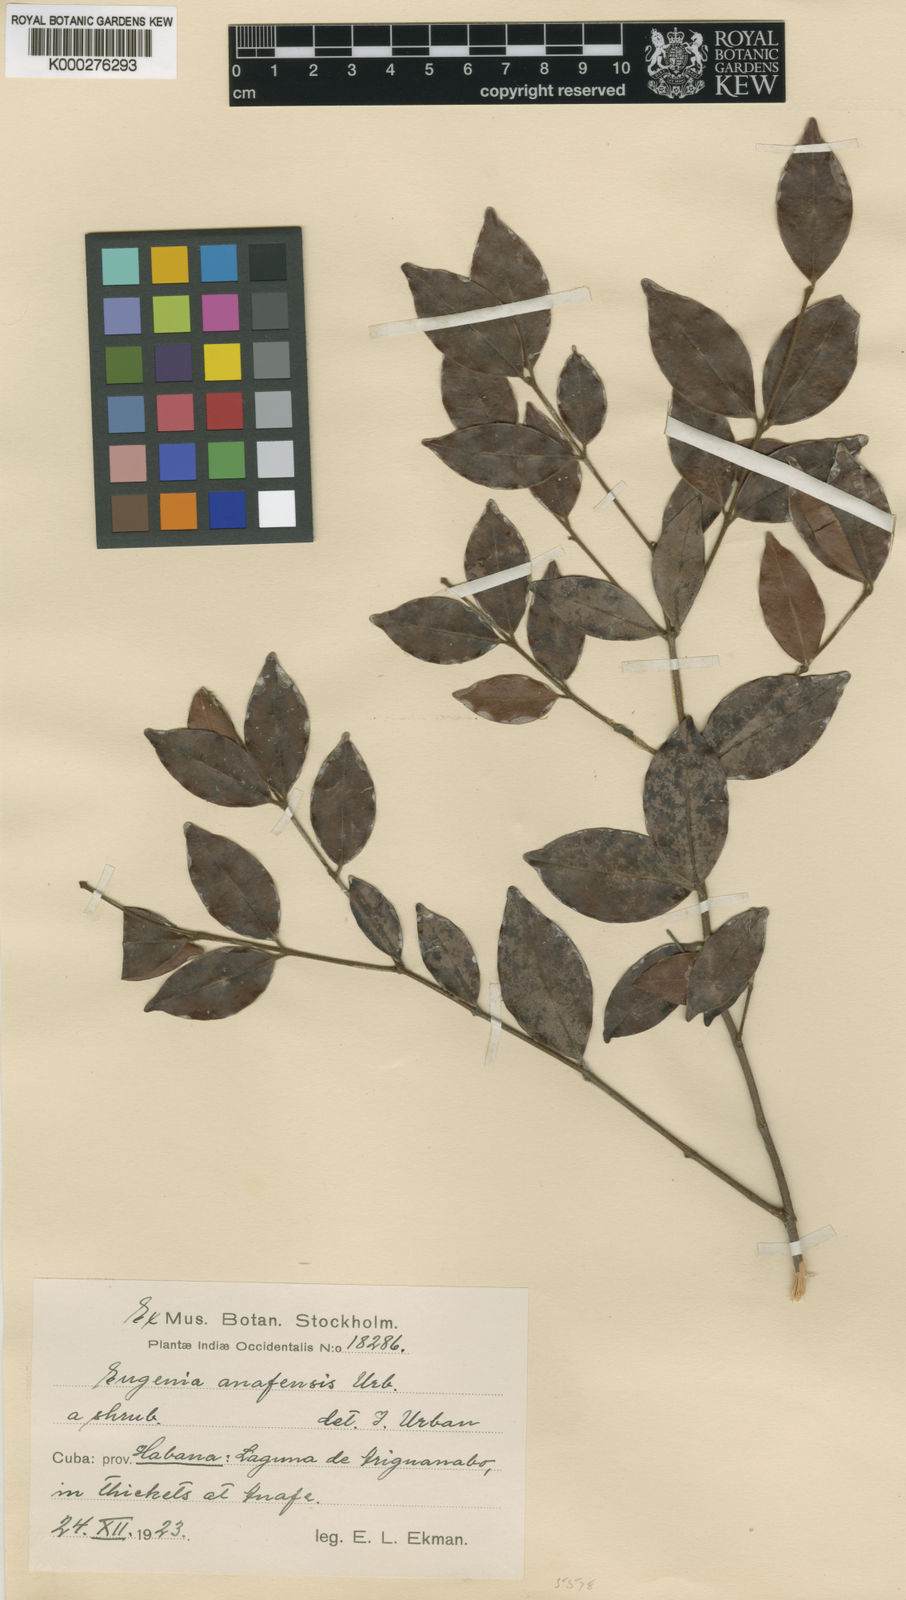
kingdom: Plantae
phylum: Tracheophyta
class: Magnoliopsida
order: Myrtales
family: Myrtaceae
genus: Eugenia
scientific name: Eugenia anafensis
